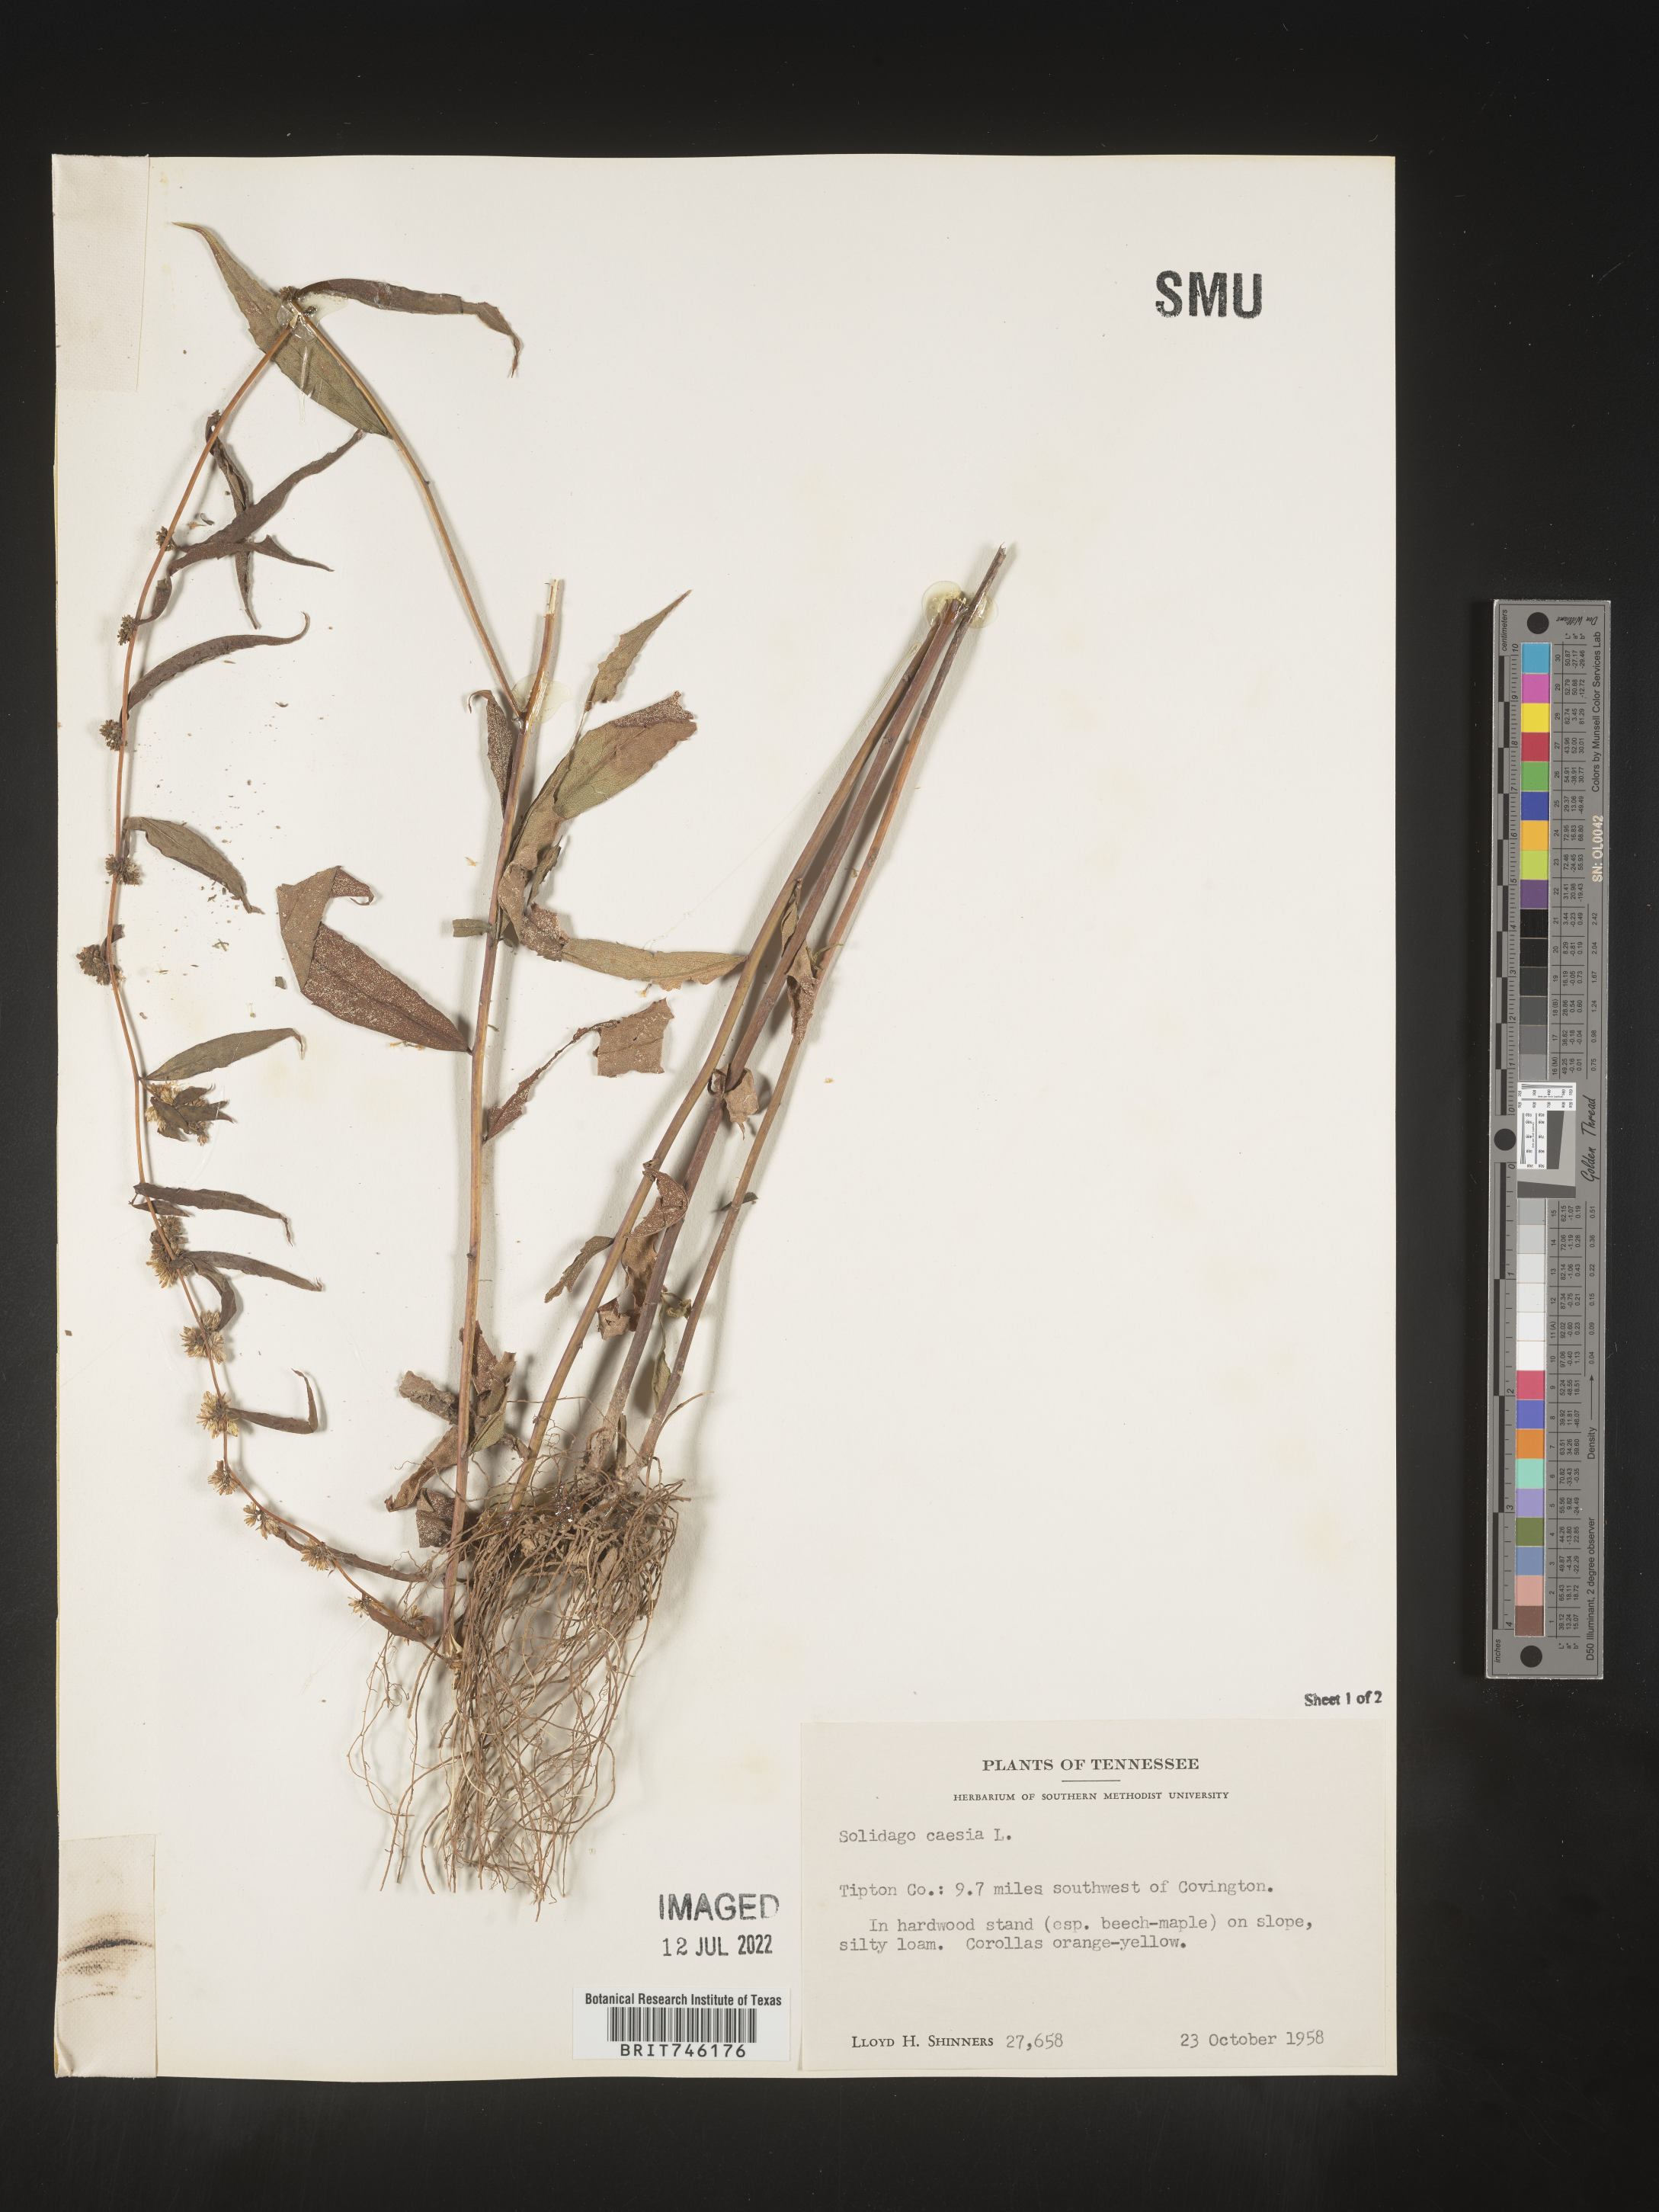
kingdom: Plantae
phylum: Tracheophyta
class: Magnoliopsida
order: Asterales
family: Asteraceae
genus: Solidago
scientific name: Solidago caesia
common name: Woodland goldenrod
